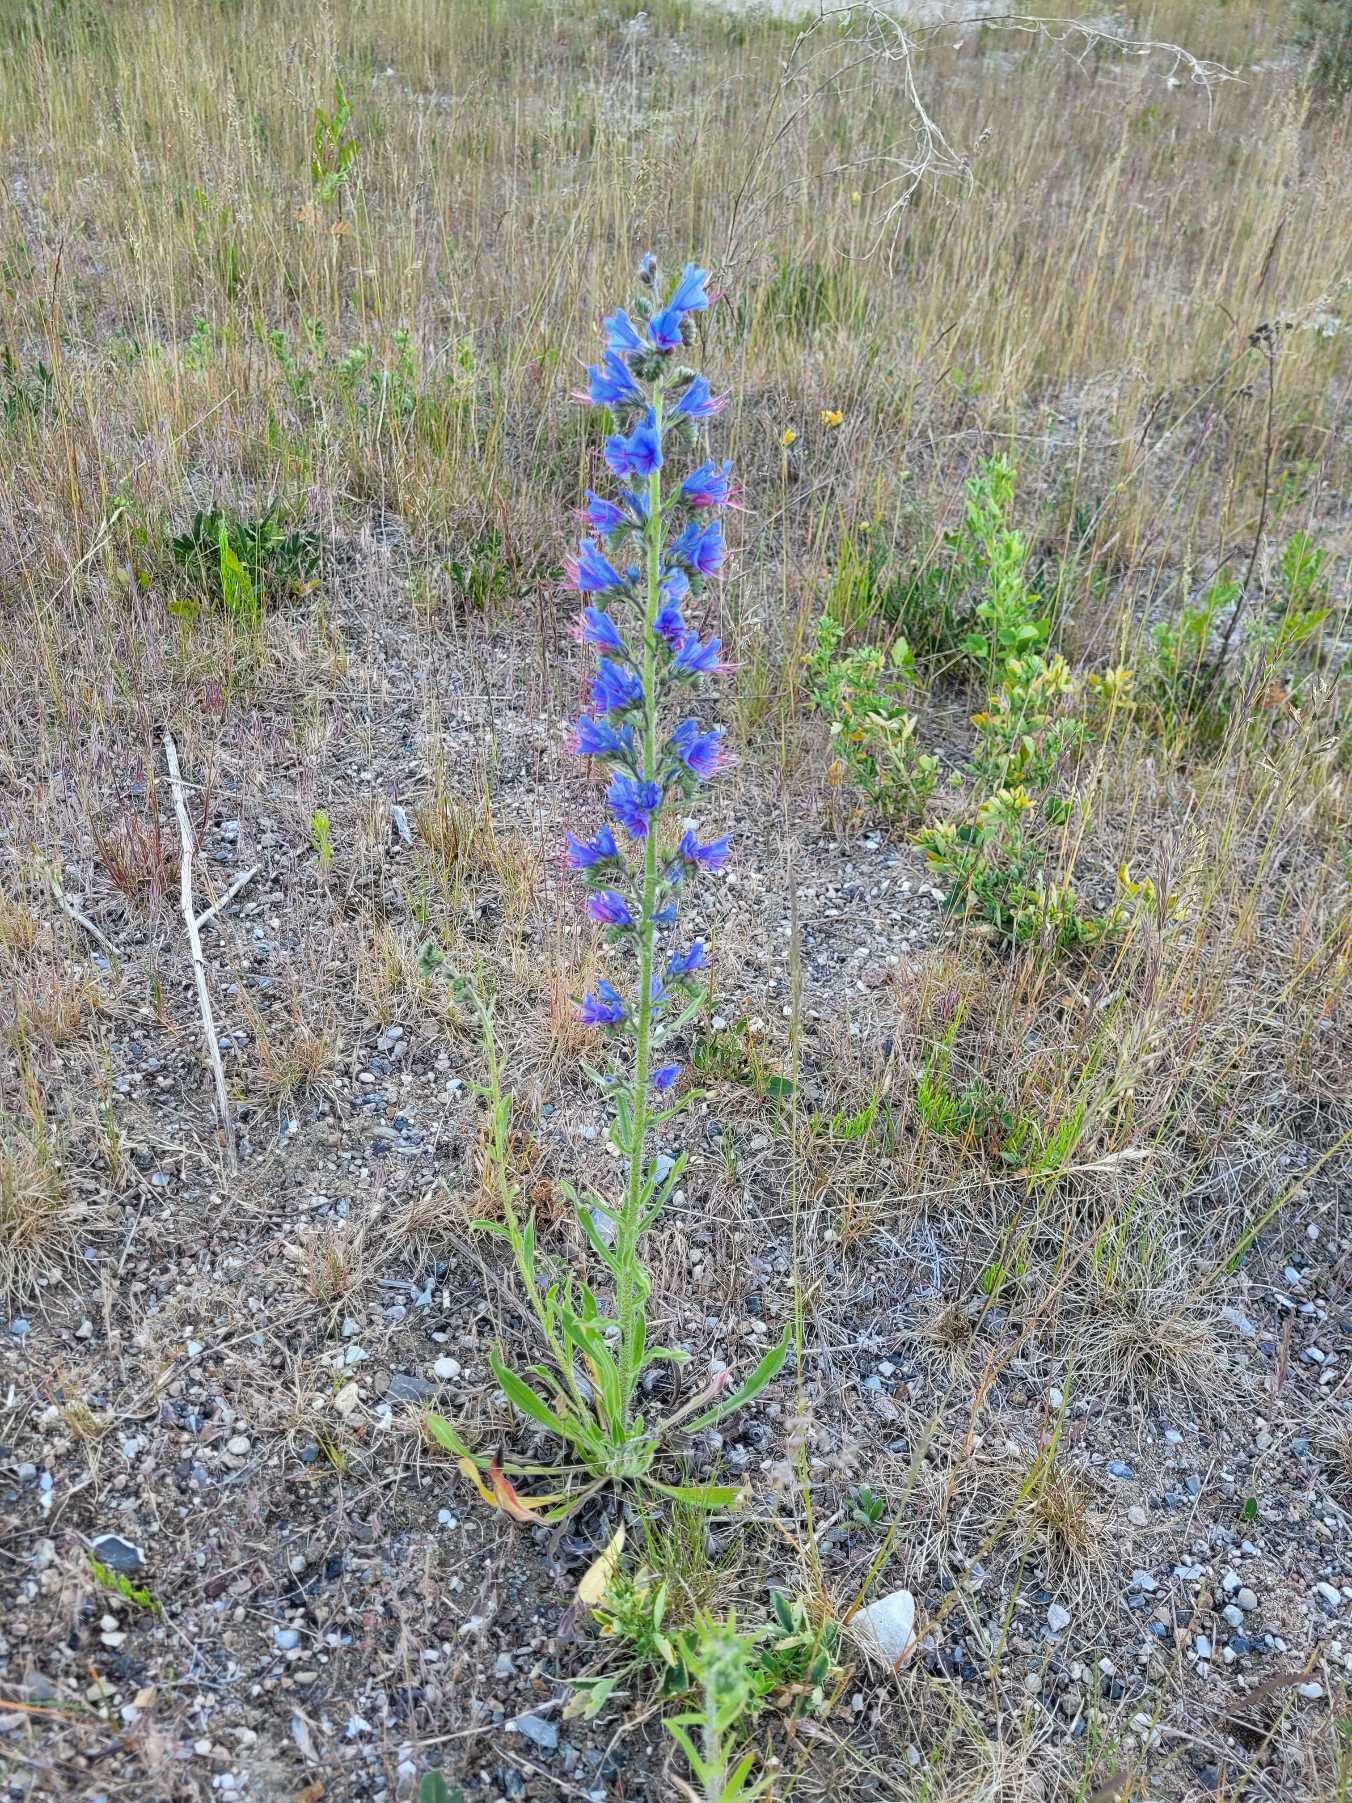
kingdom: Plantae
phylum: Tracheophyta
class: Magnoliopsida
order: Boraginales
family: Boraginaceae
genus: Echium
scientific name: Echium vulgare
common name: Slangehoved
